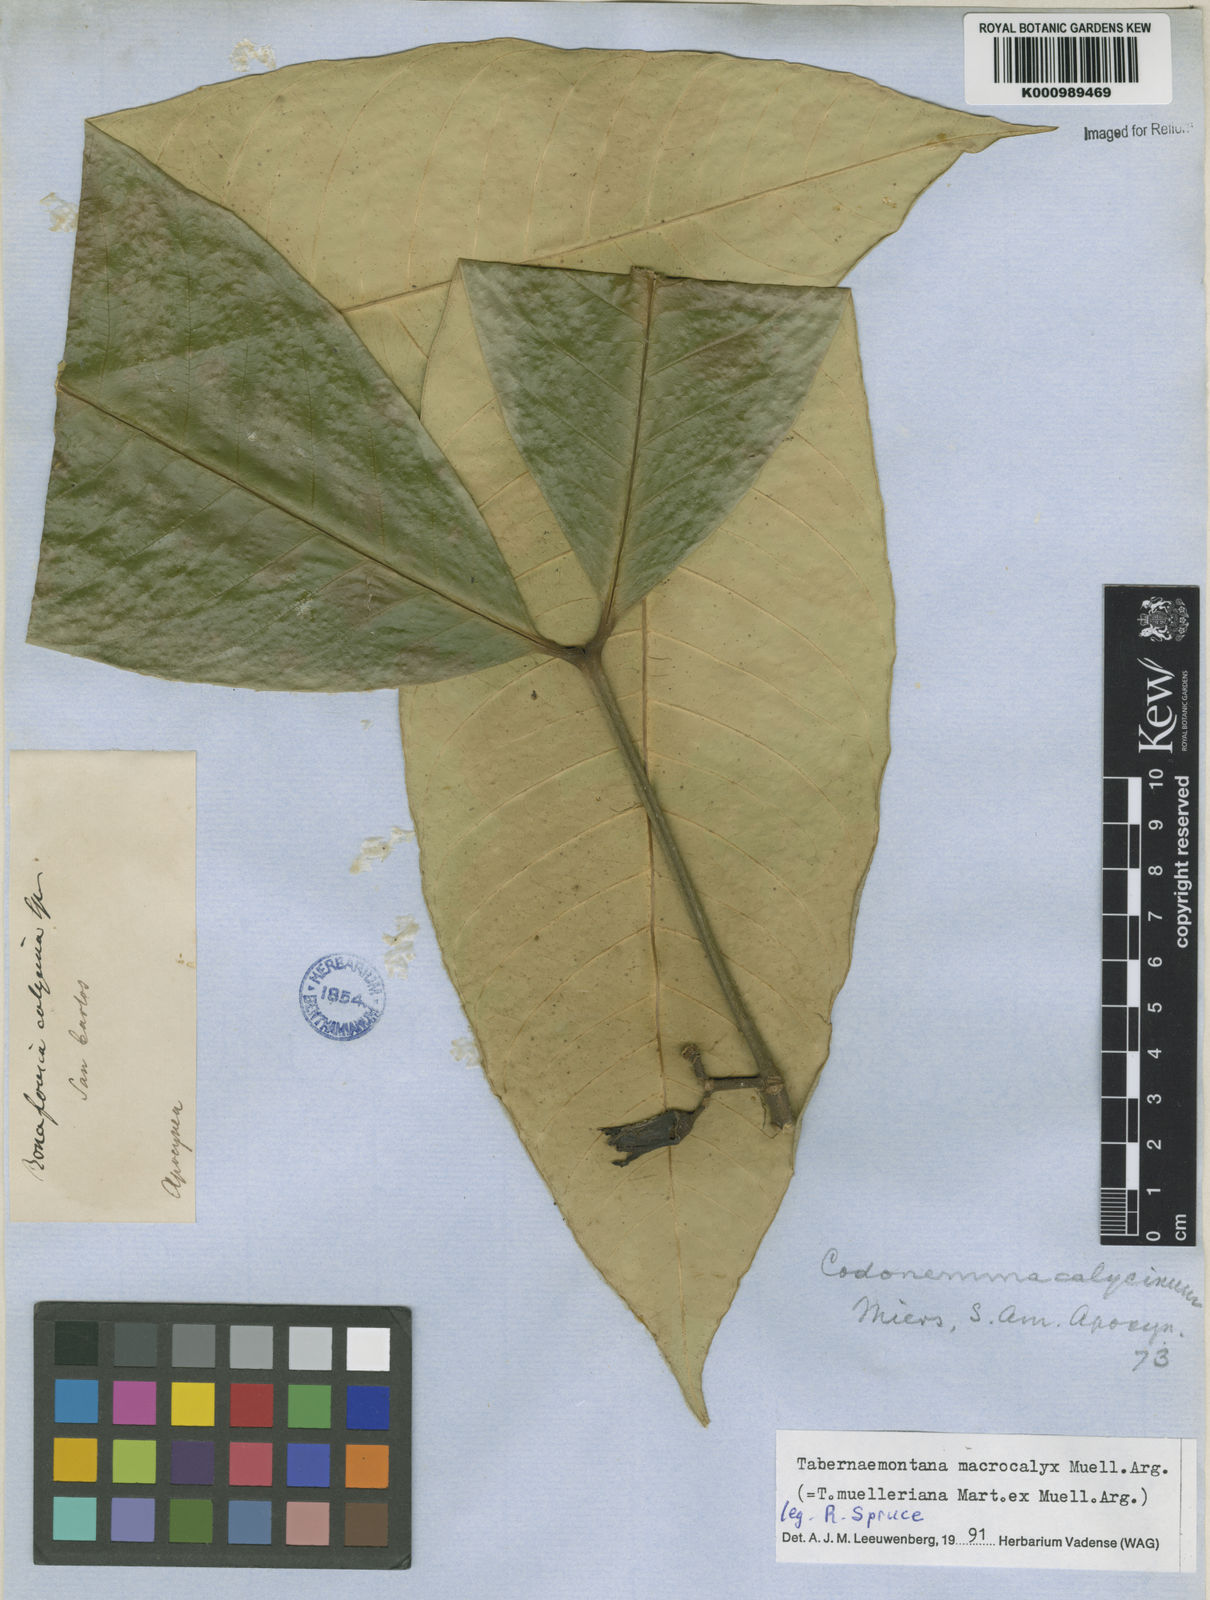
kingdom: Plantae
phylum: Tracheophyta
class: Magnoliopsida
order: Gentianales
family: Apocynaceae
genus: Tabernaemontana
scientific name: Tabernaemontana
